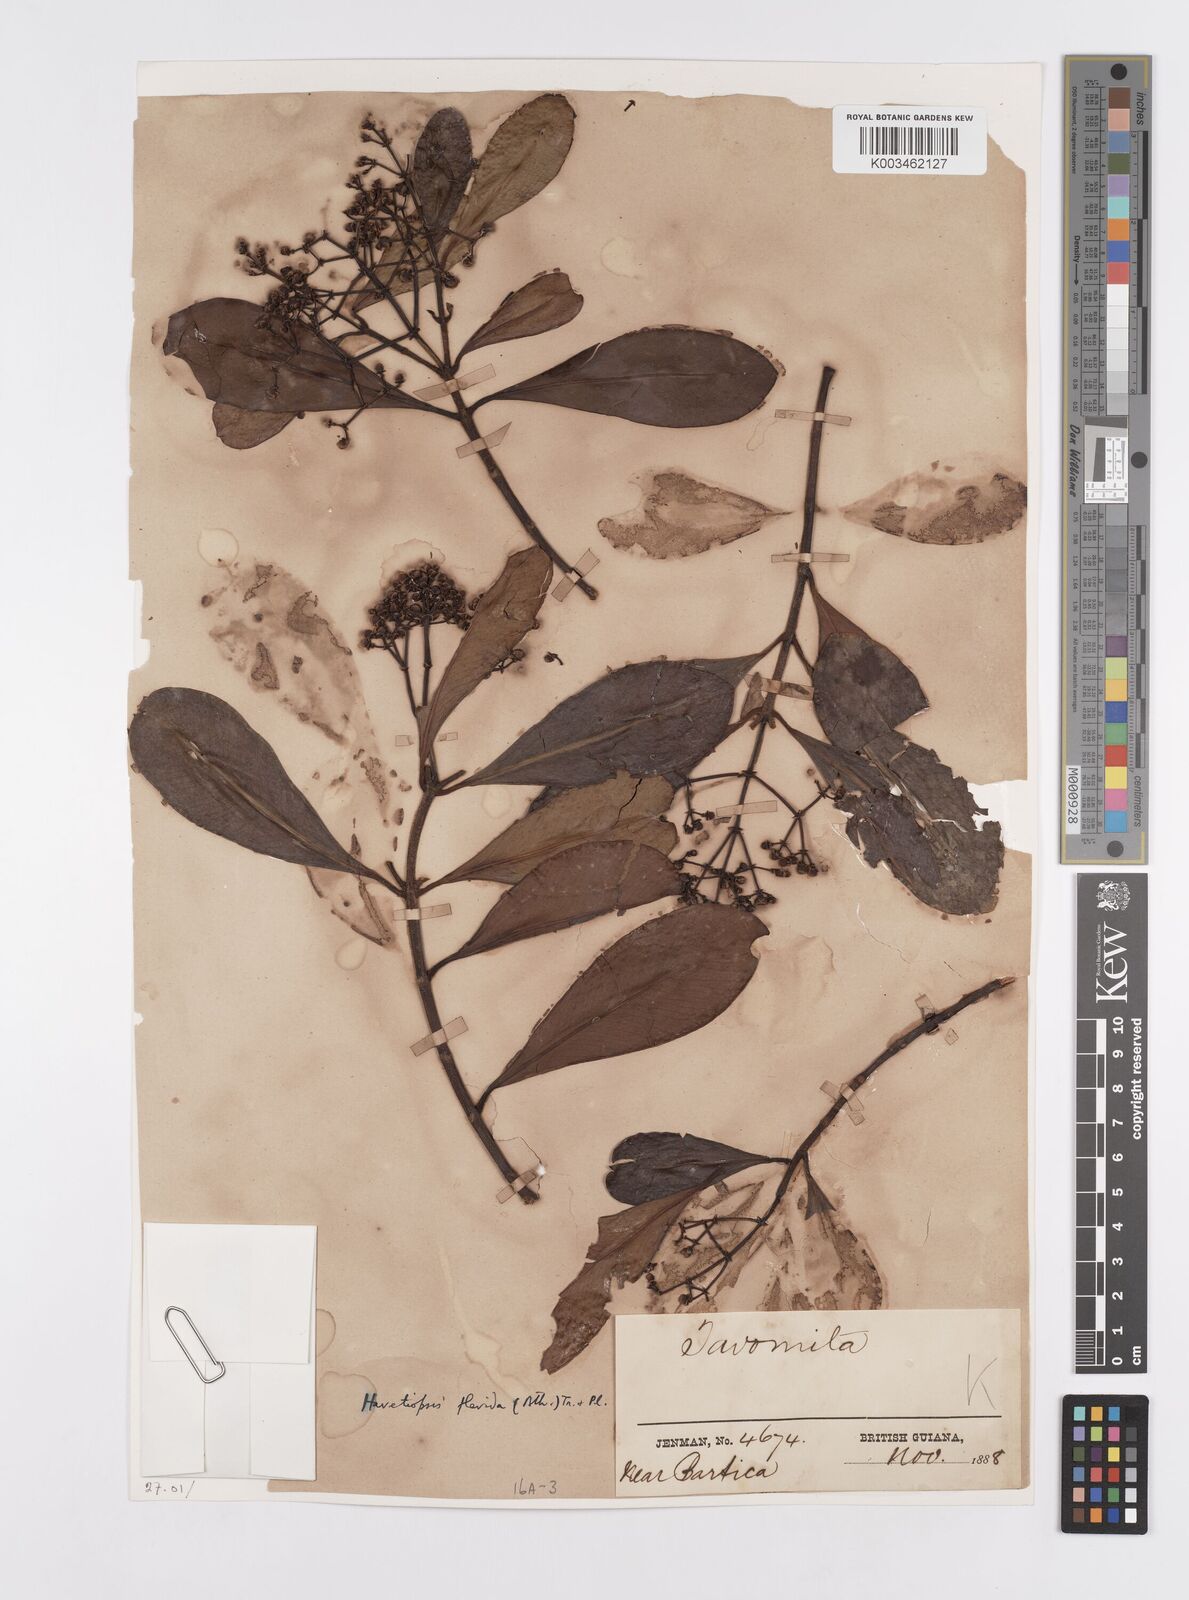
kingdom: Plantae
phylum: Tracheophyta
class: Magnoliopsida
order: Malpighiales
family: Clusiaceae
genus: Clusia
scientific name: Clusia flavida
